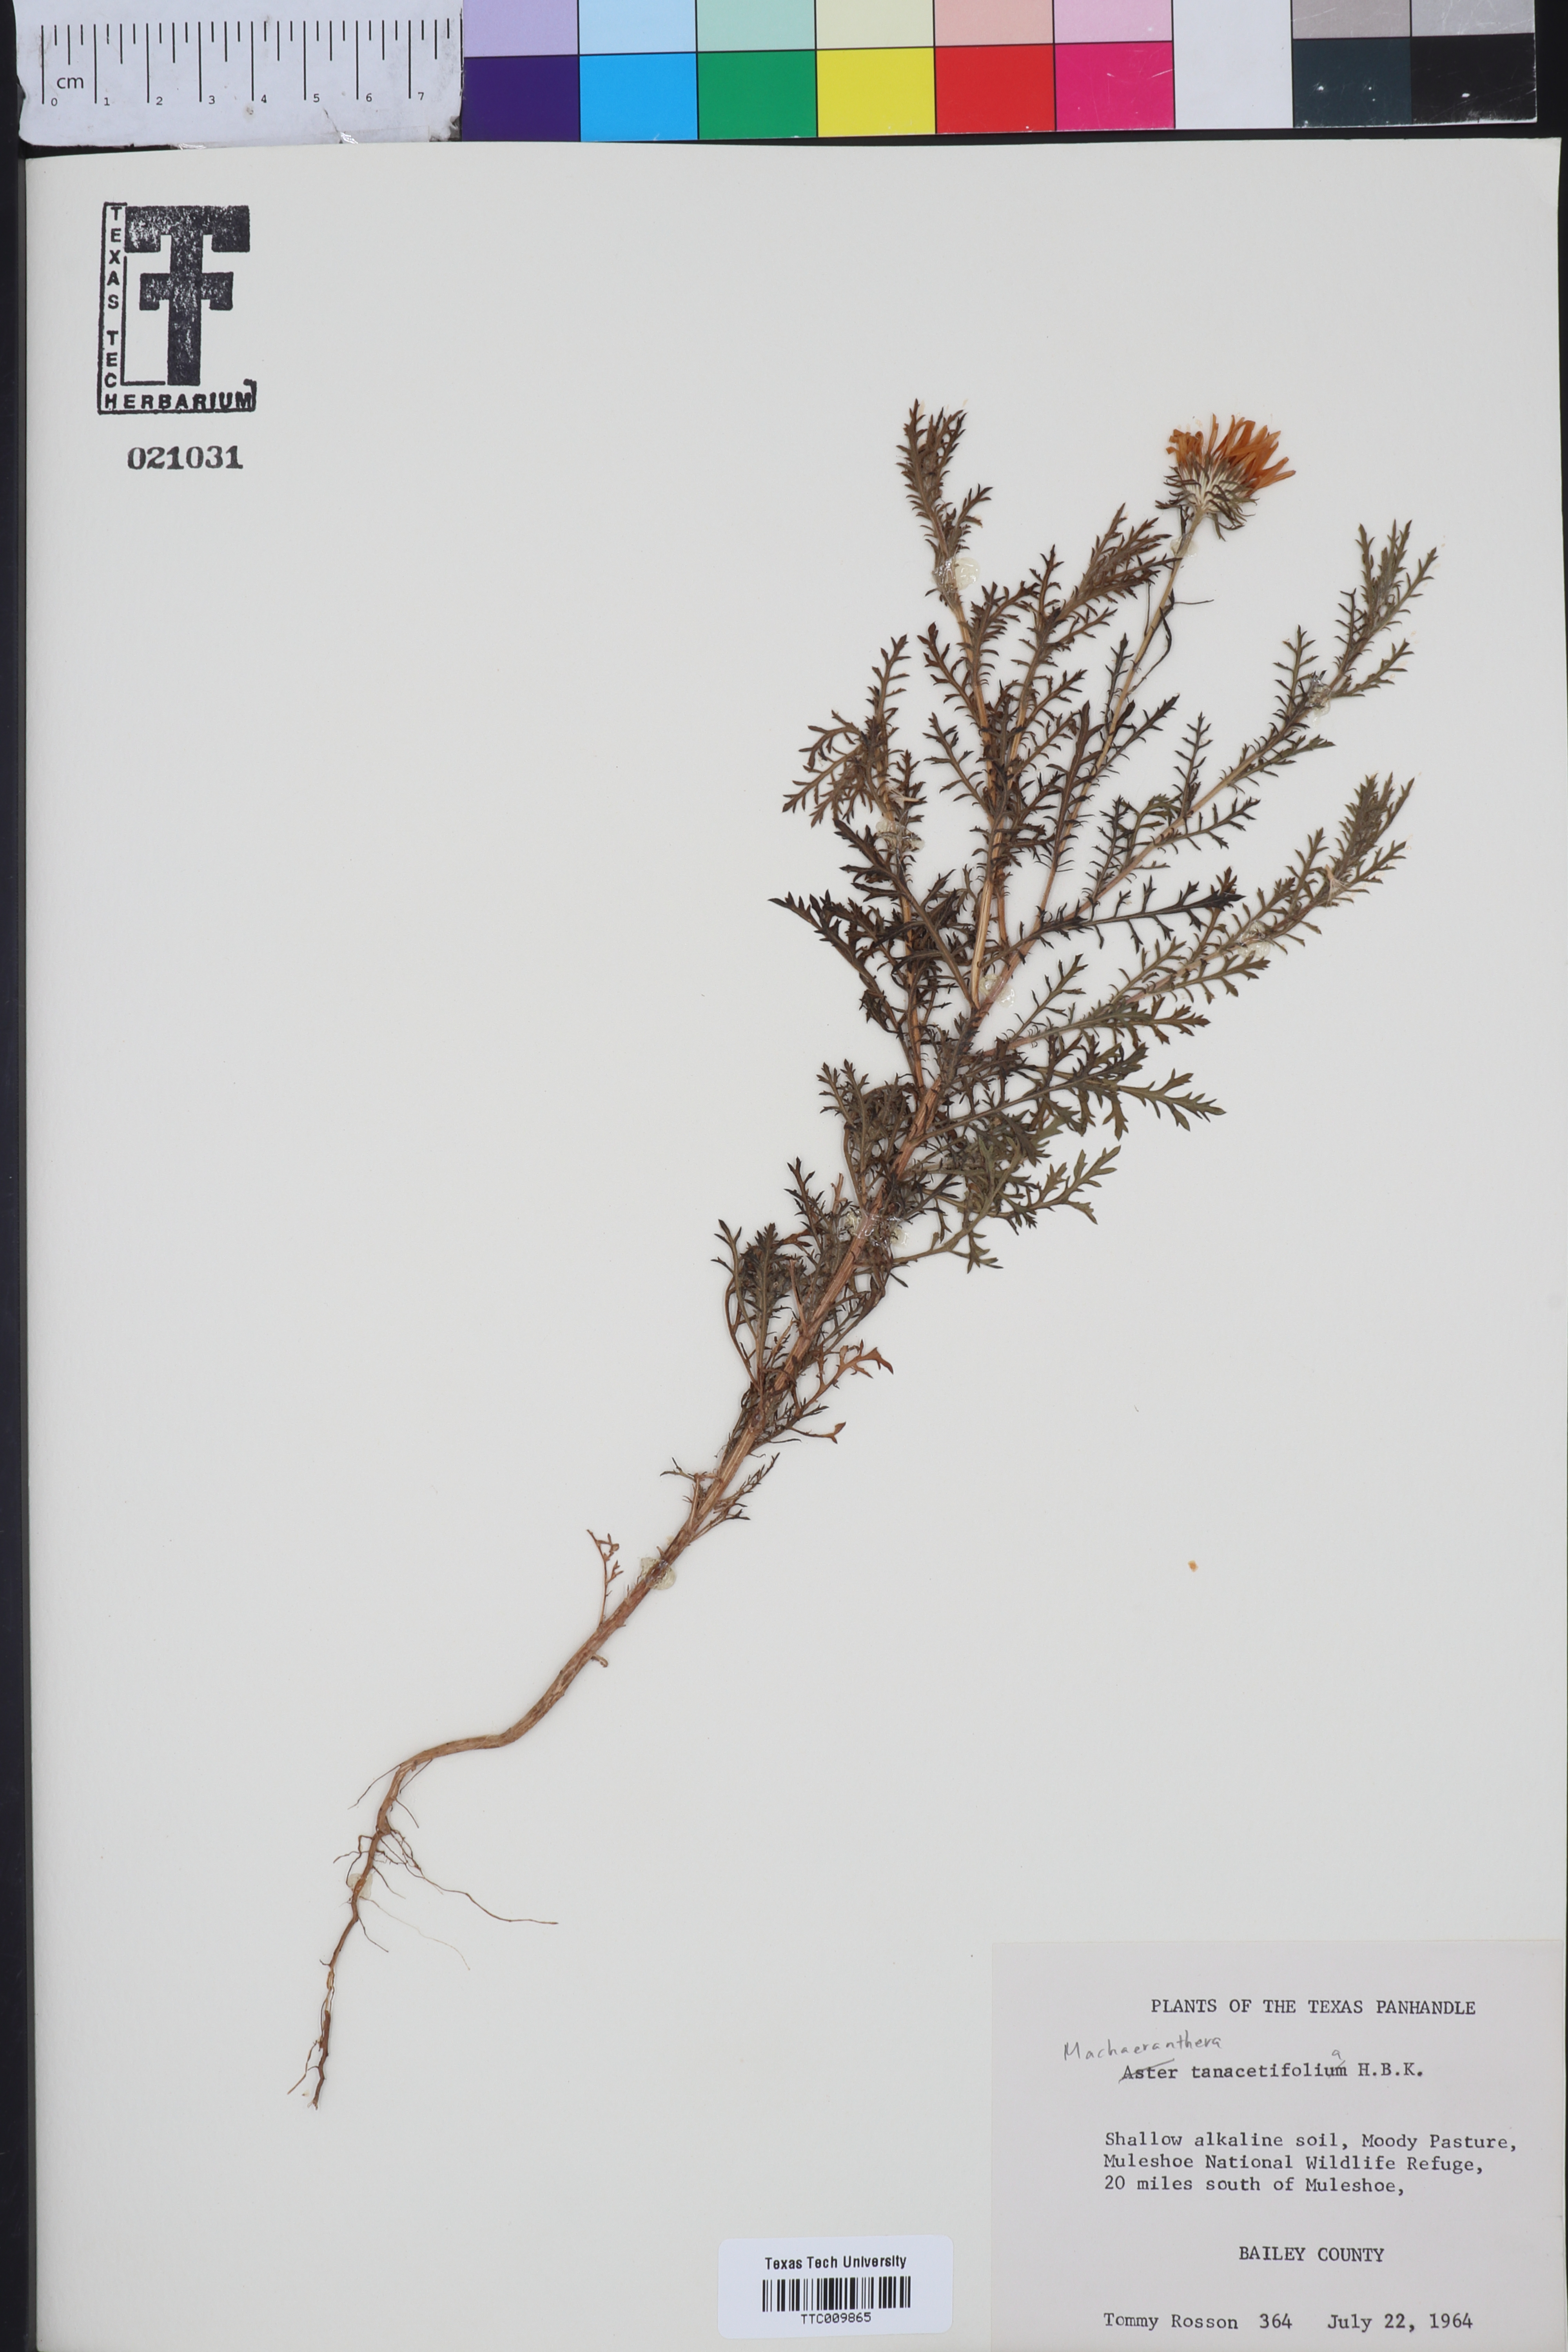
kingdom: Plantae
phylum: Tracheophyta
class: Magnoliopsida
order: Asterales
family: Asteraceae
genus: Machaeranthera
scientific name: Machaeranthera tanacetifolia
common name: Tansy-aster
